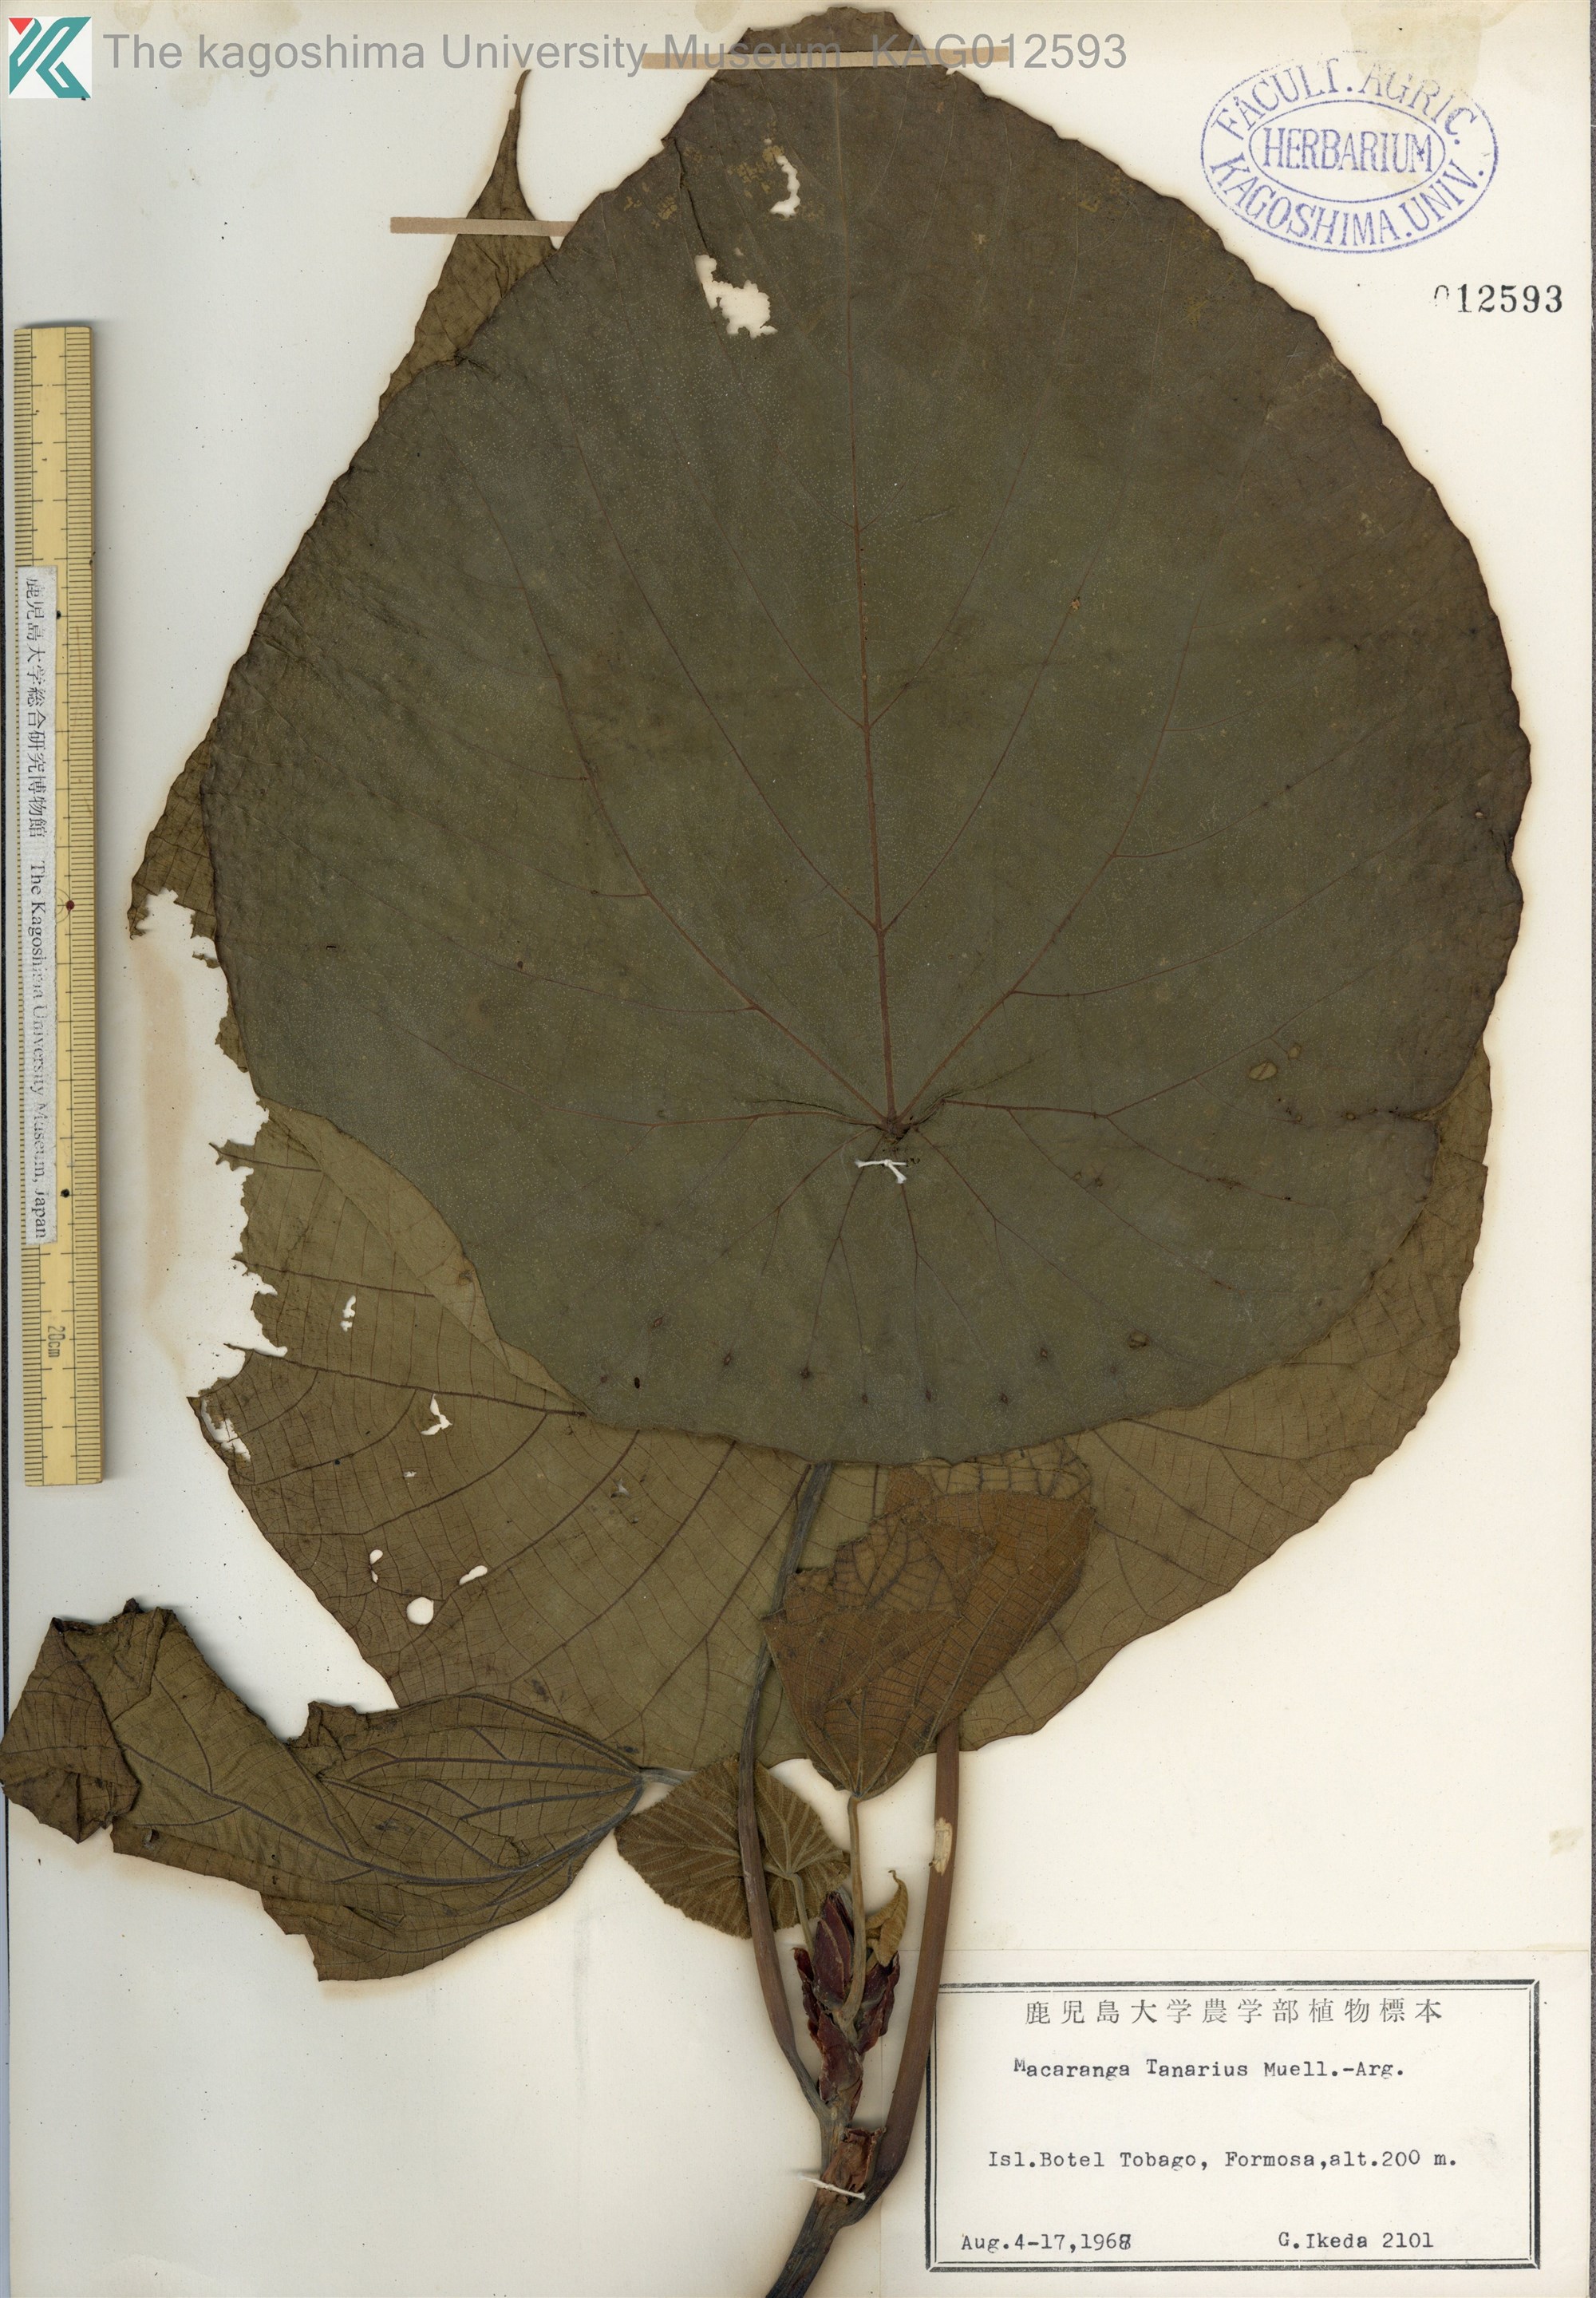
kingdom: Plantae
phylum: Tracheophyta
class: Magnoliopsida
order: Malpighiales
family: Euphorbiaceae
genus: Macaranga
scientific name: Macaranga tanarius
